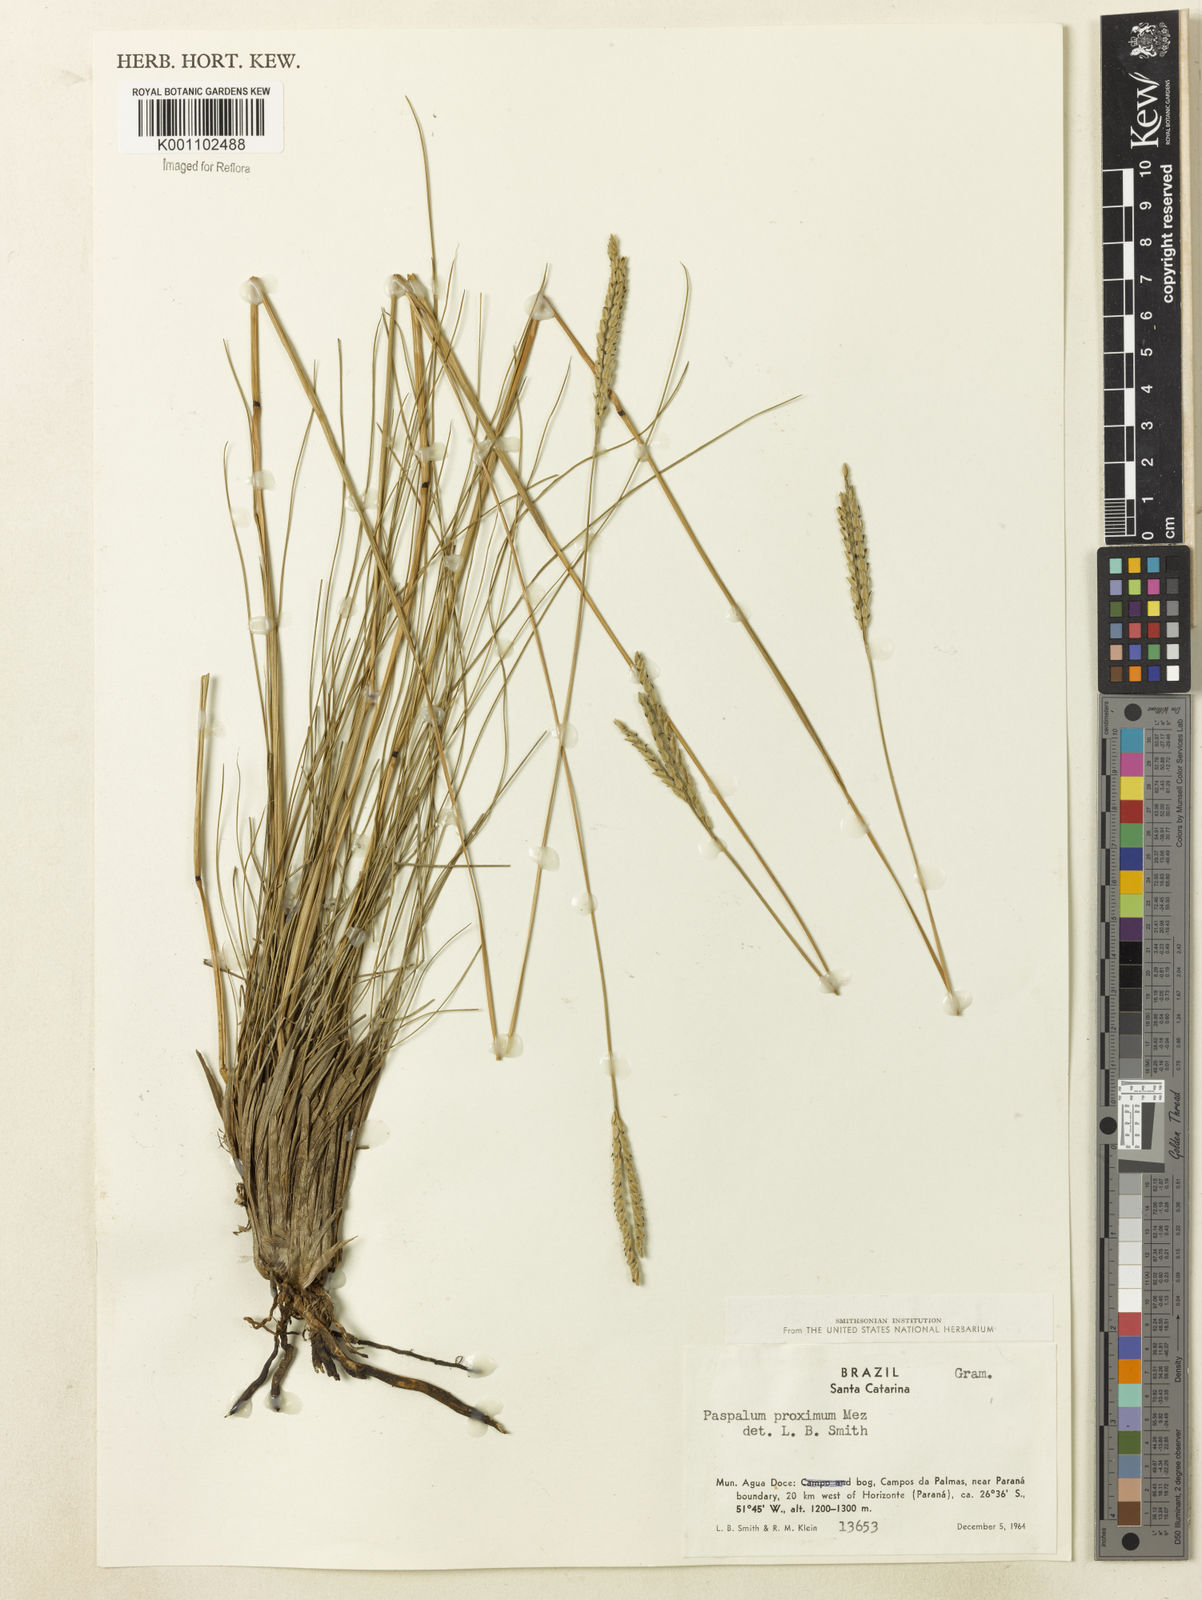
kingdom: Plantae
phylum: Tracheophyta
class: Liliopsida
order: Poales
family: Poaceae
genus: Paspalum
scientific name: Paspalum ellipticum
